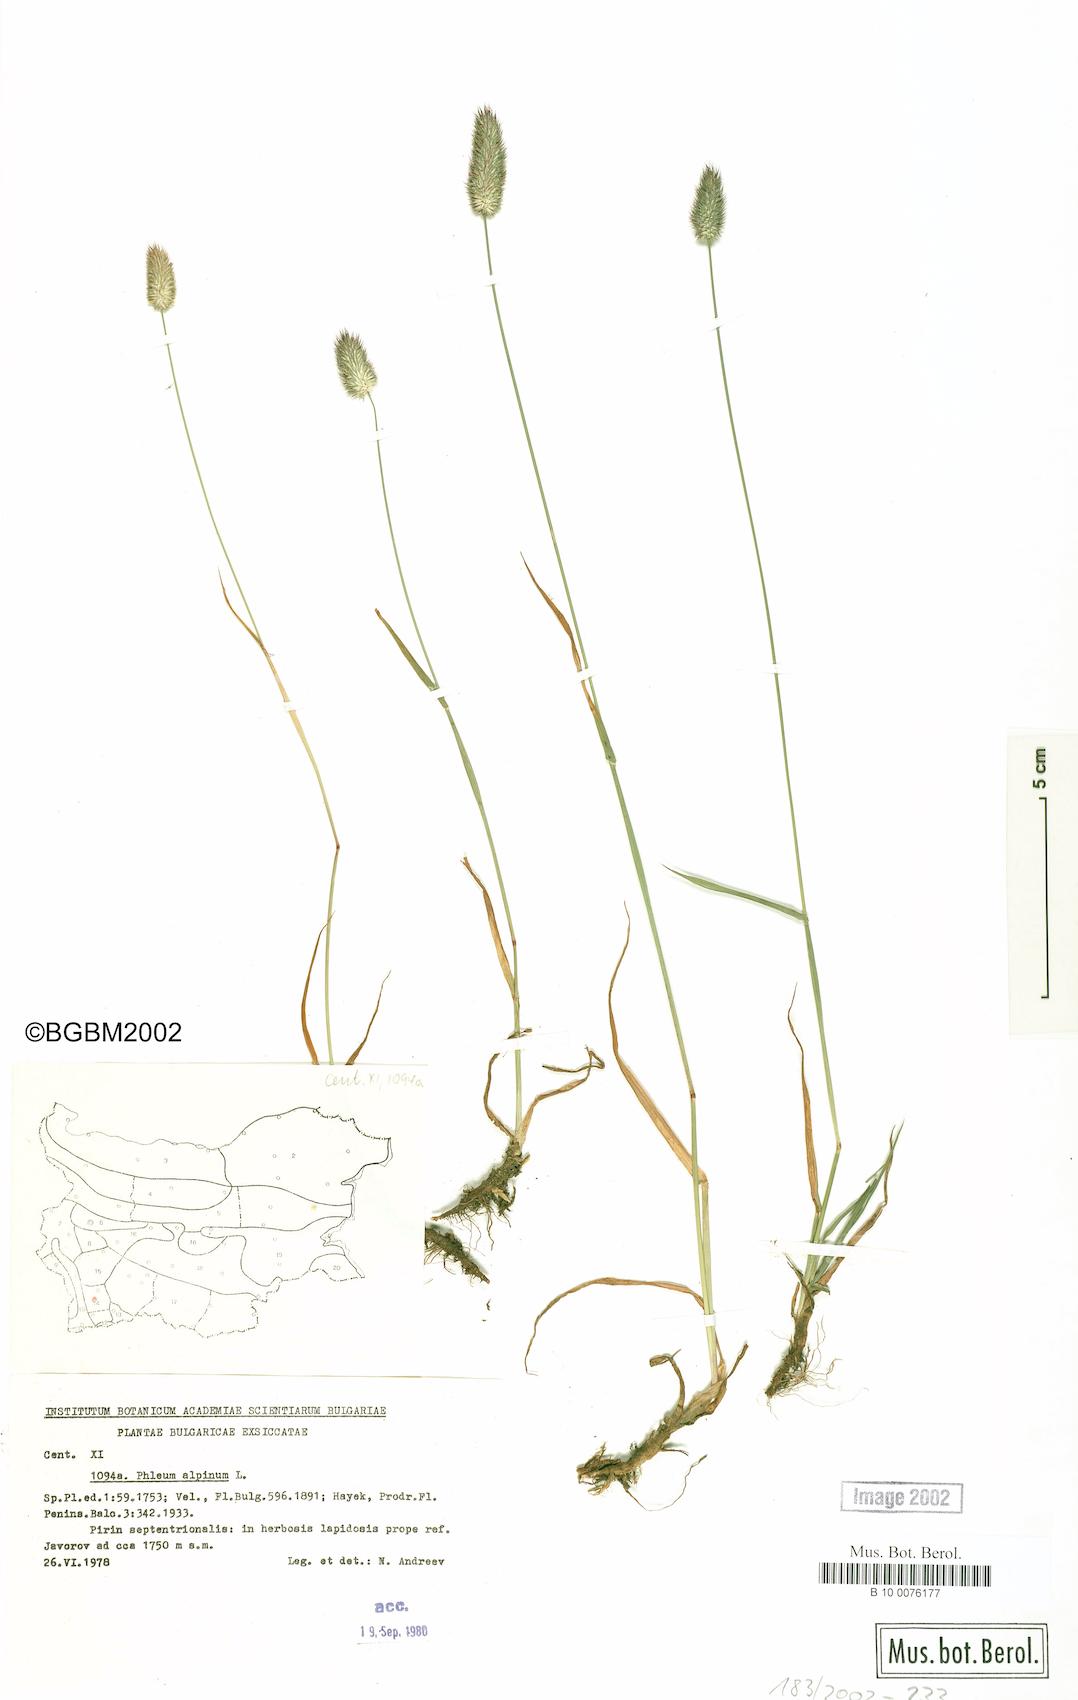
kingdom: Plantae
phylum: Tracheophyta
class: Liliopsida
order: Poales
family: Poaceae
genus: Phleum
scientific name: Phleum alpinum
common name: Alpine cat's-tail
